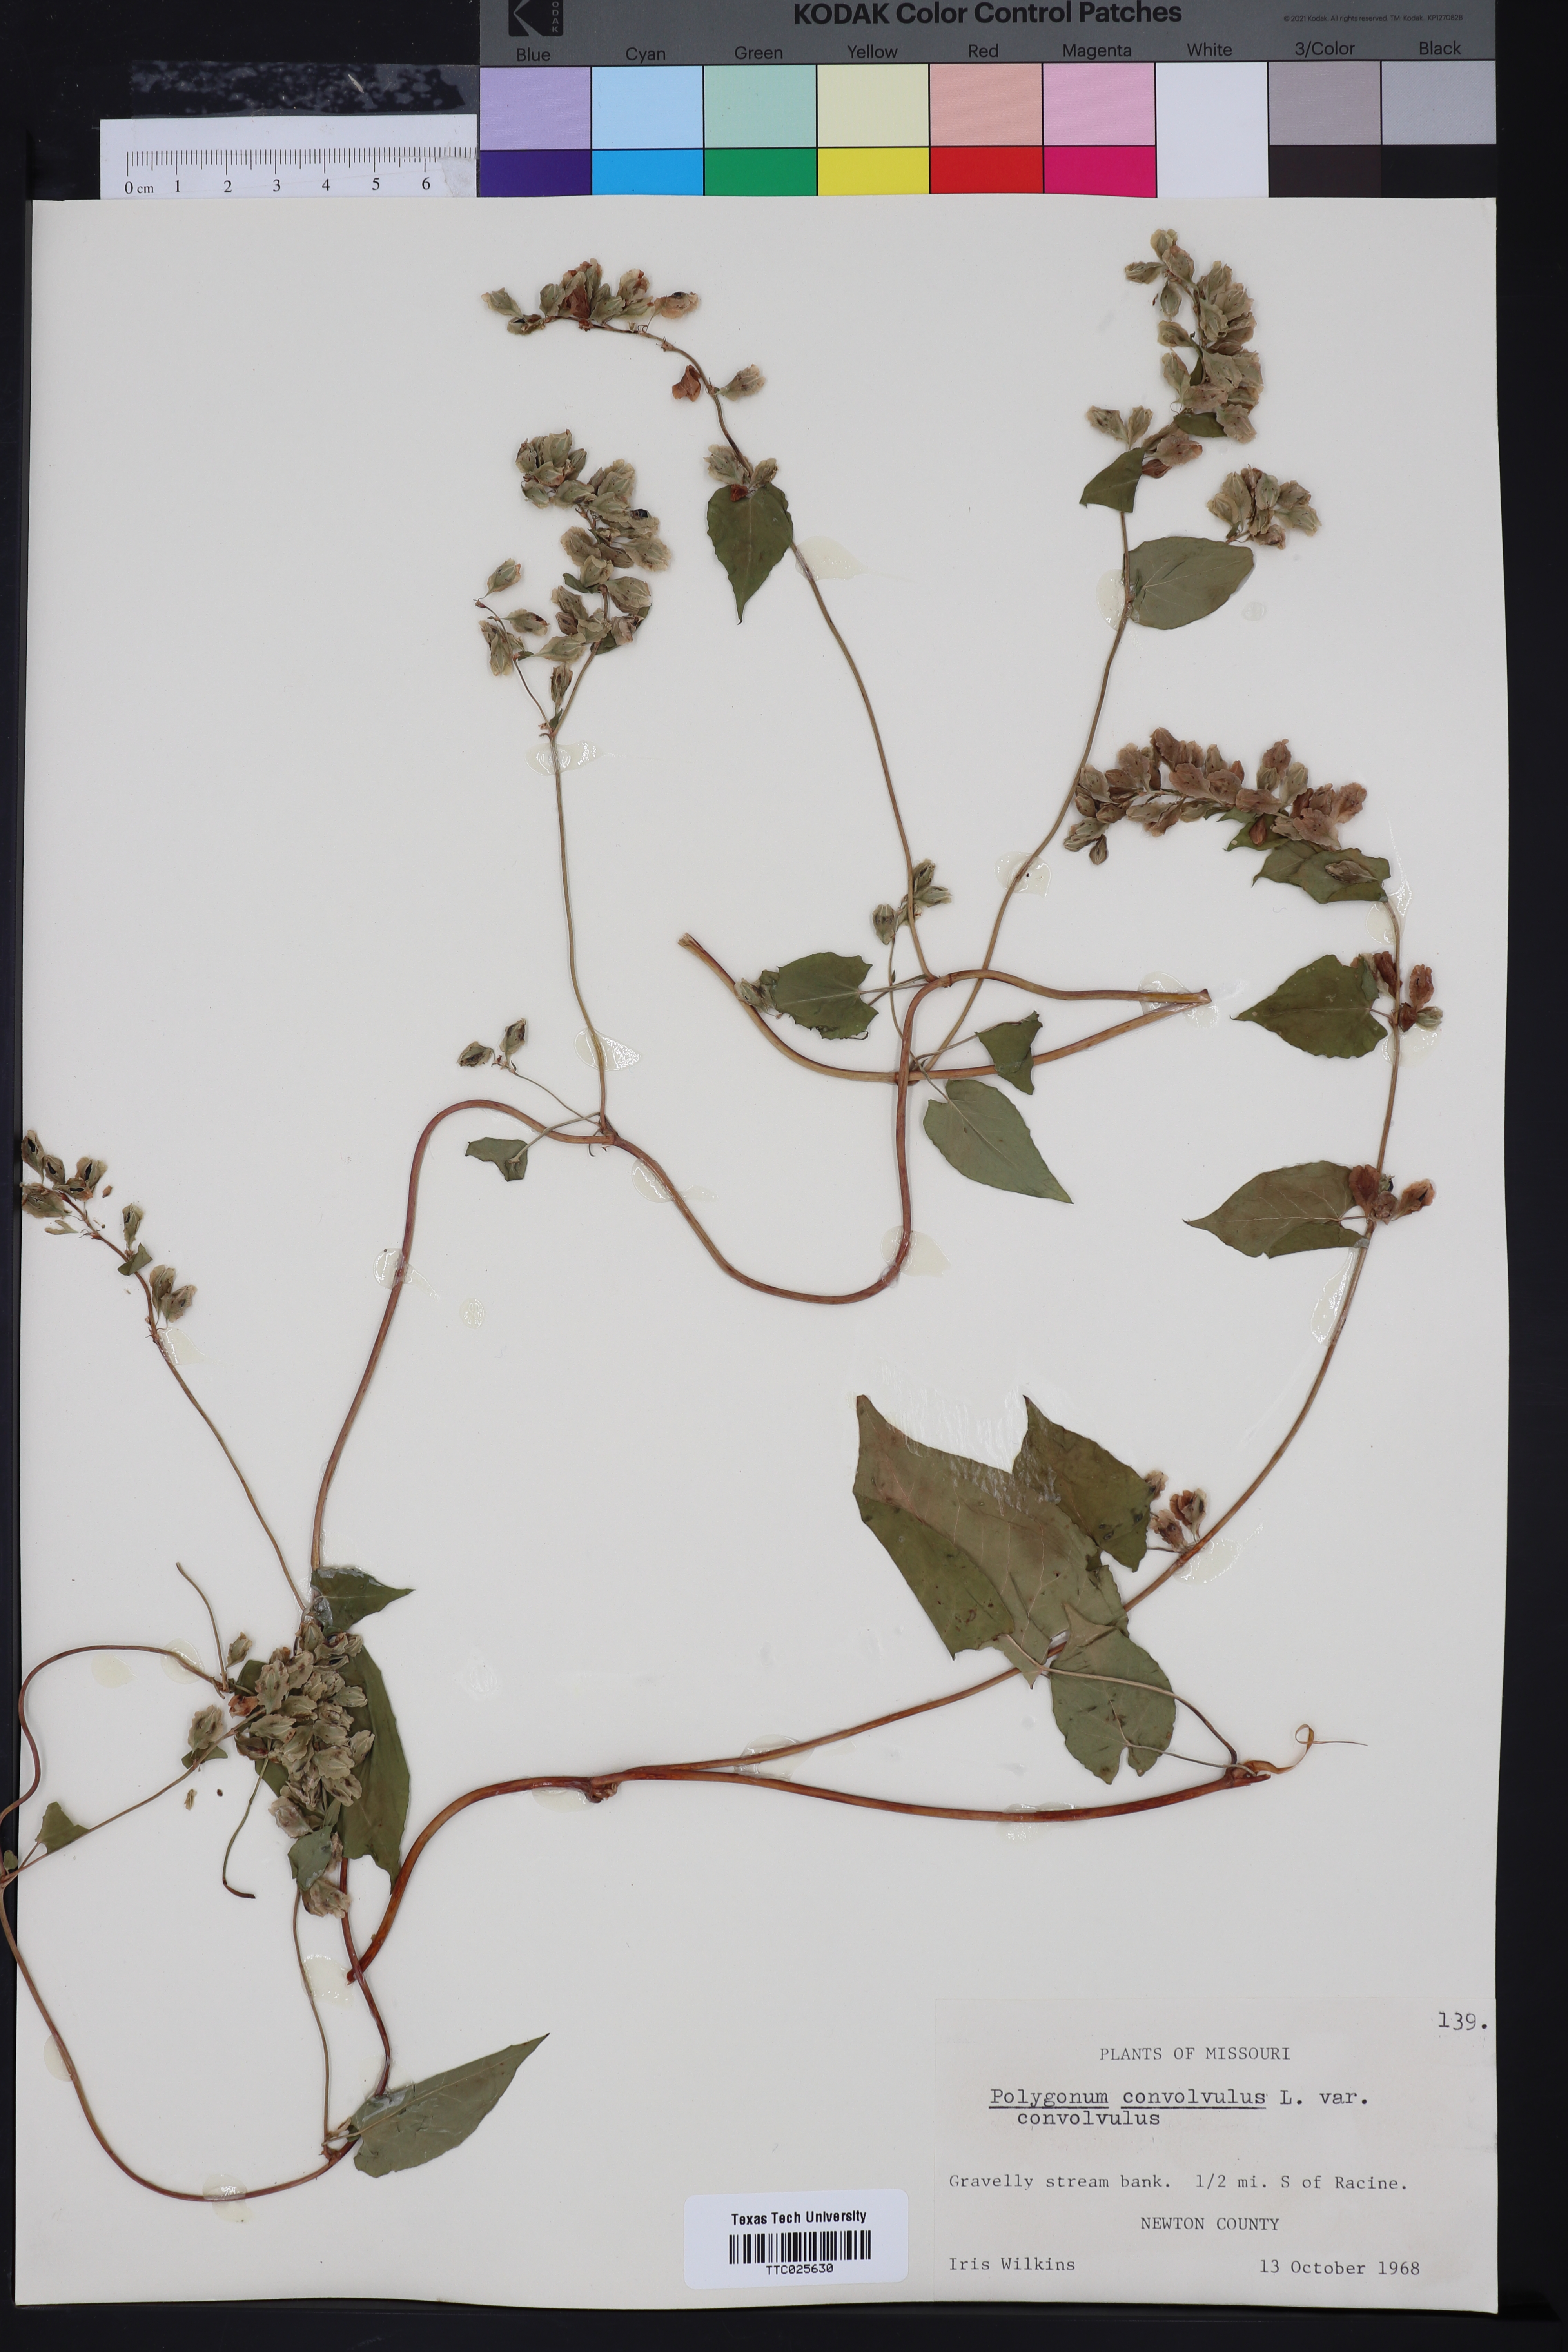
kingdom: Plantae
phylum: Tracheophyta
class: Magnoliopsida
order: Caryophyllales
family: Polygonaceae
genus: Fallopia
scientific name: Fallopia convolvulus
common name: Black bindweed
